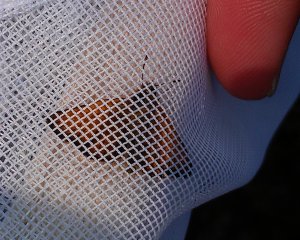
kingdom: Animalia
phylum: Arthropoda
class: Insecta
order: Lepidoptera
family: Hesperiidae
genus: Thymelicus
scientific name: Thymelicus lineola
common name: European Skipper
